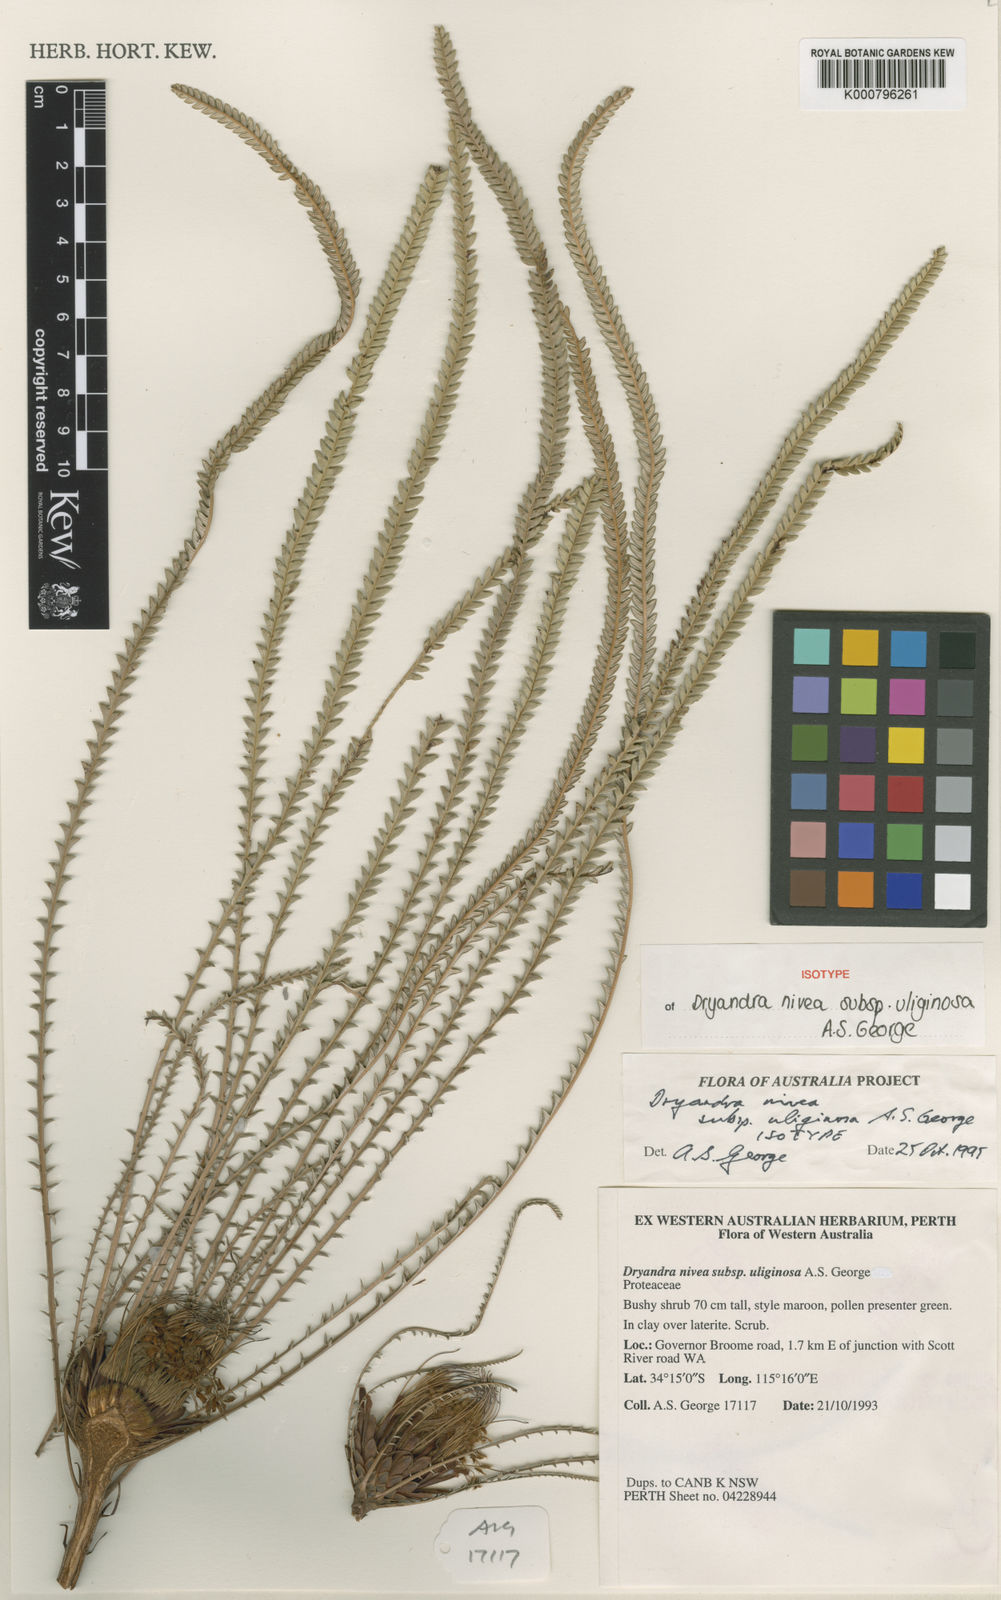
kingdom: Plantae
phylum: Tracheophyta
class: Magnoliopsida
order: Proteales
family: Proteaceae
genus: Banksia
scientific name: Banksia nivea
